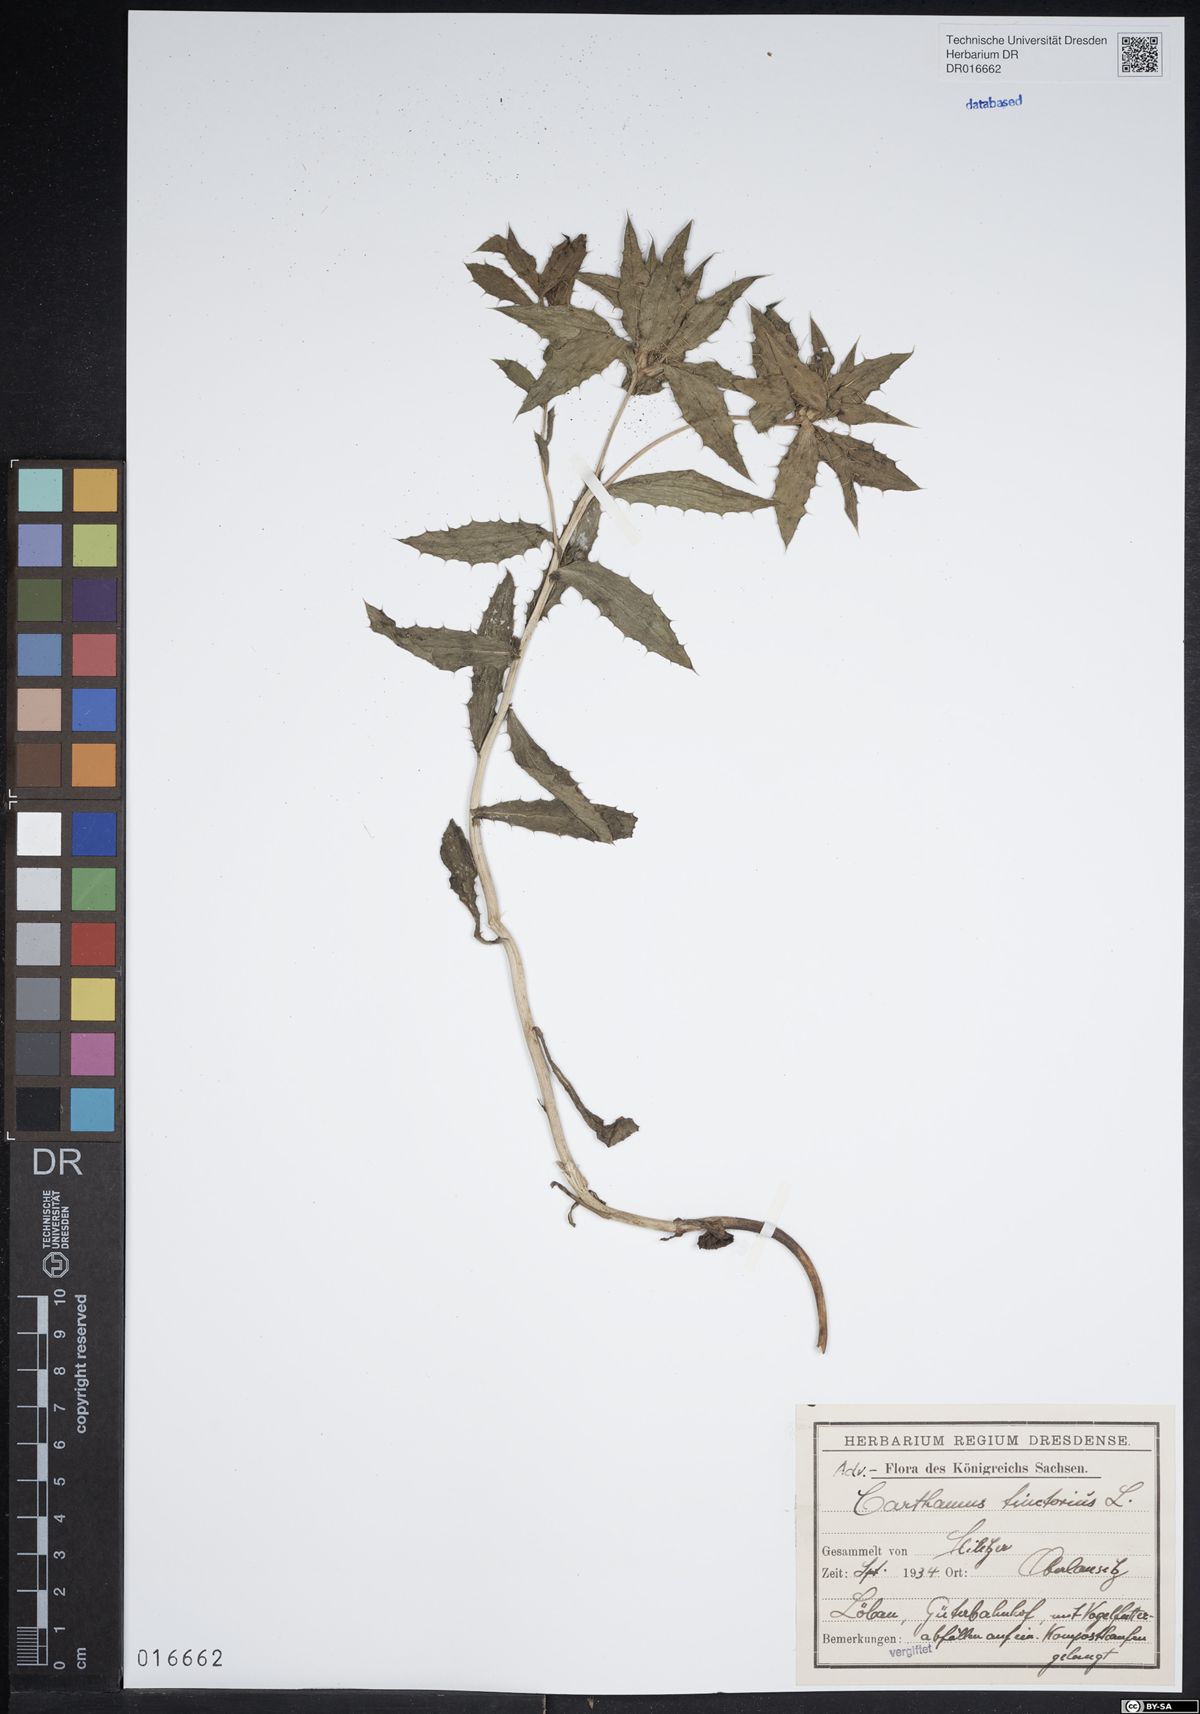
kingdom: Plantae
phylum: Tracheophyta
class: Magnoliopsida
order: Asterales
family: Asteraceae
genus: Carthamus
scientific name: Carthamus tinctorius
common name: Safflower
